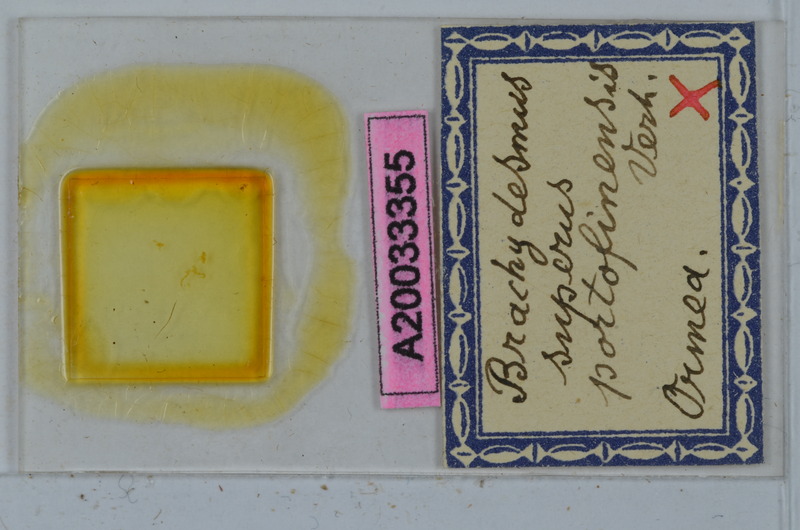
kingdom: Animalia
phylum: Arthropoda
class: Diplopoda
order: Polydesmida
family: Polydesmidae
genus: Brachydesmus
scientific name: Brachydesmus superus
